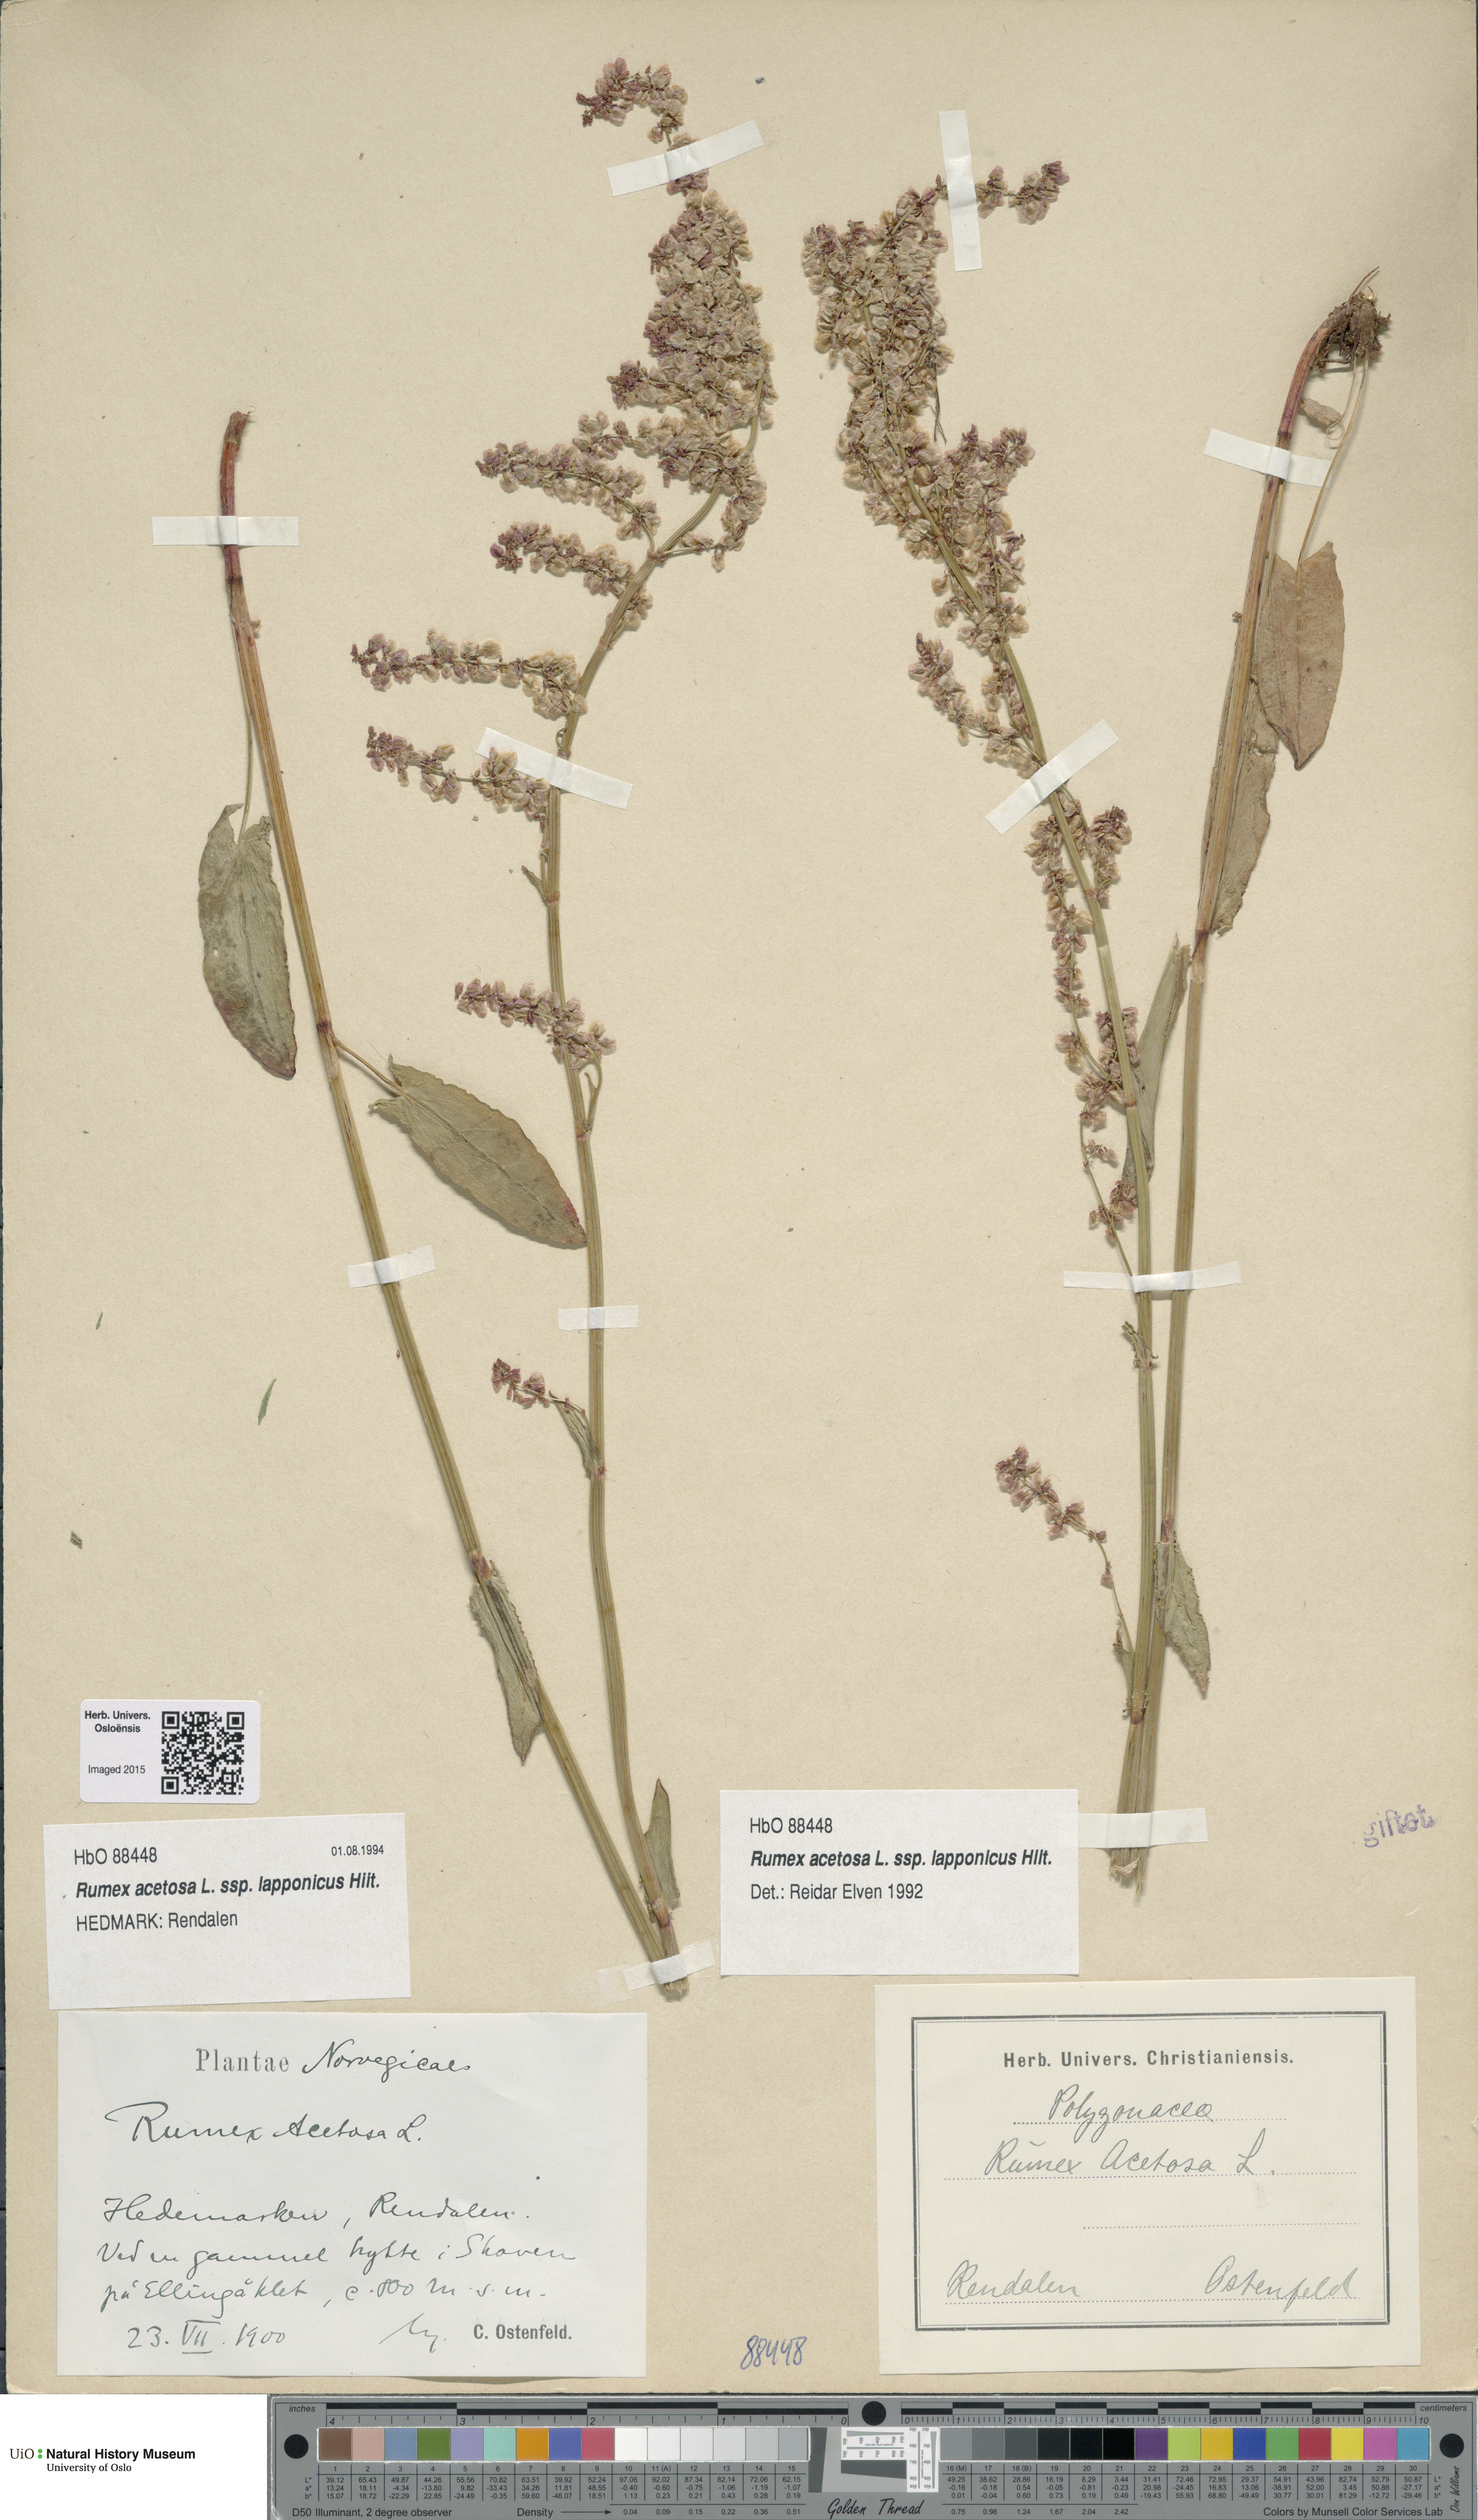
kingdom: Plantae
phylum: Tracheophyta
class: Magnoliopsida
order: Caryophyllales
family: Polygonaceae
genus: Rumex
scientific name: Rumex lapponicus
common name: Lapland mountain sorrel
